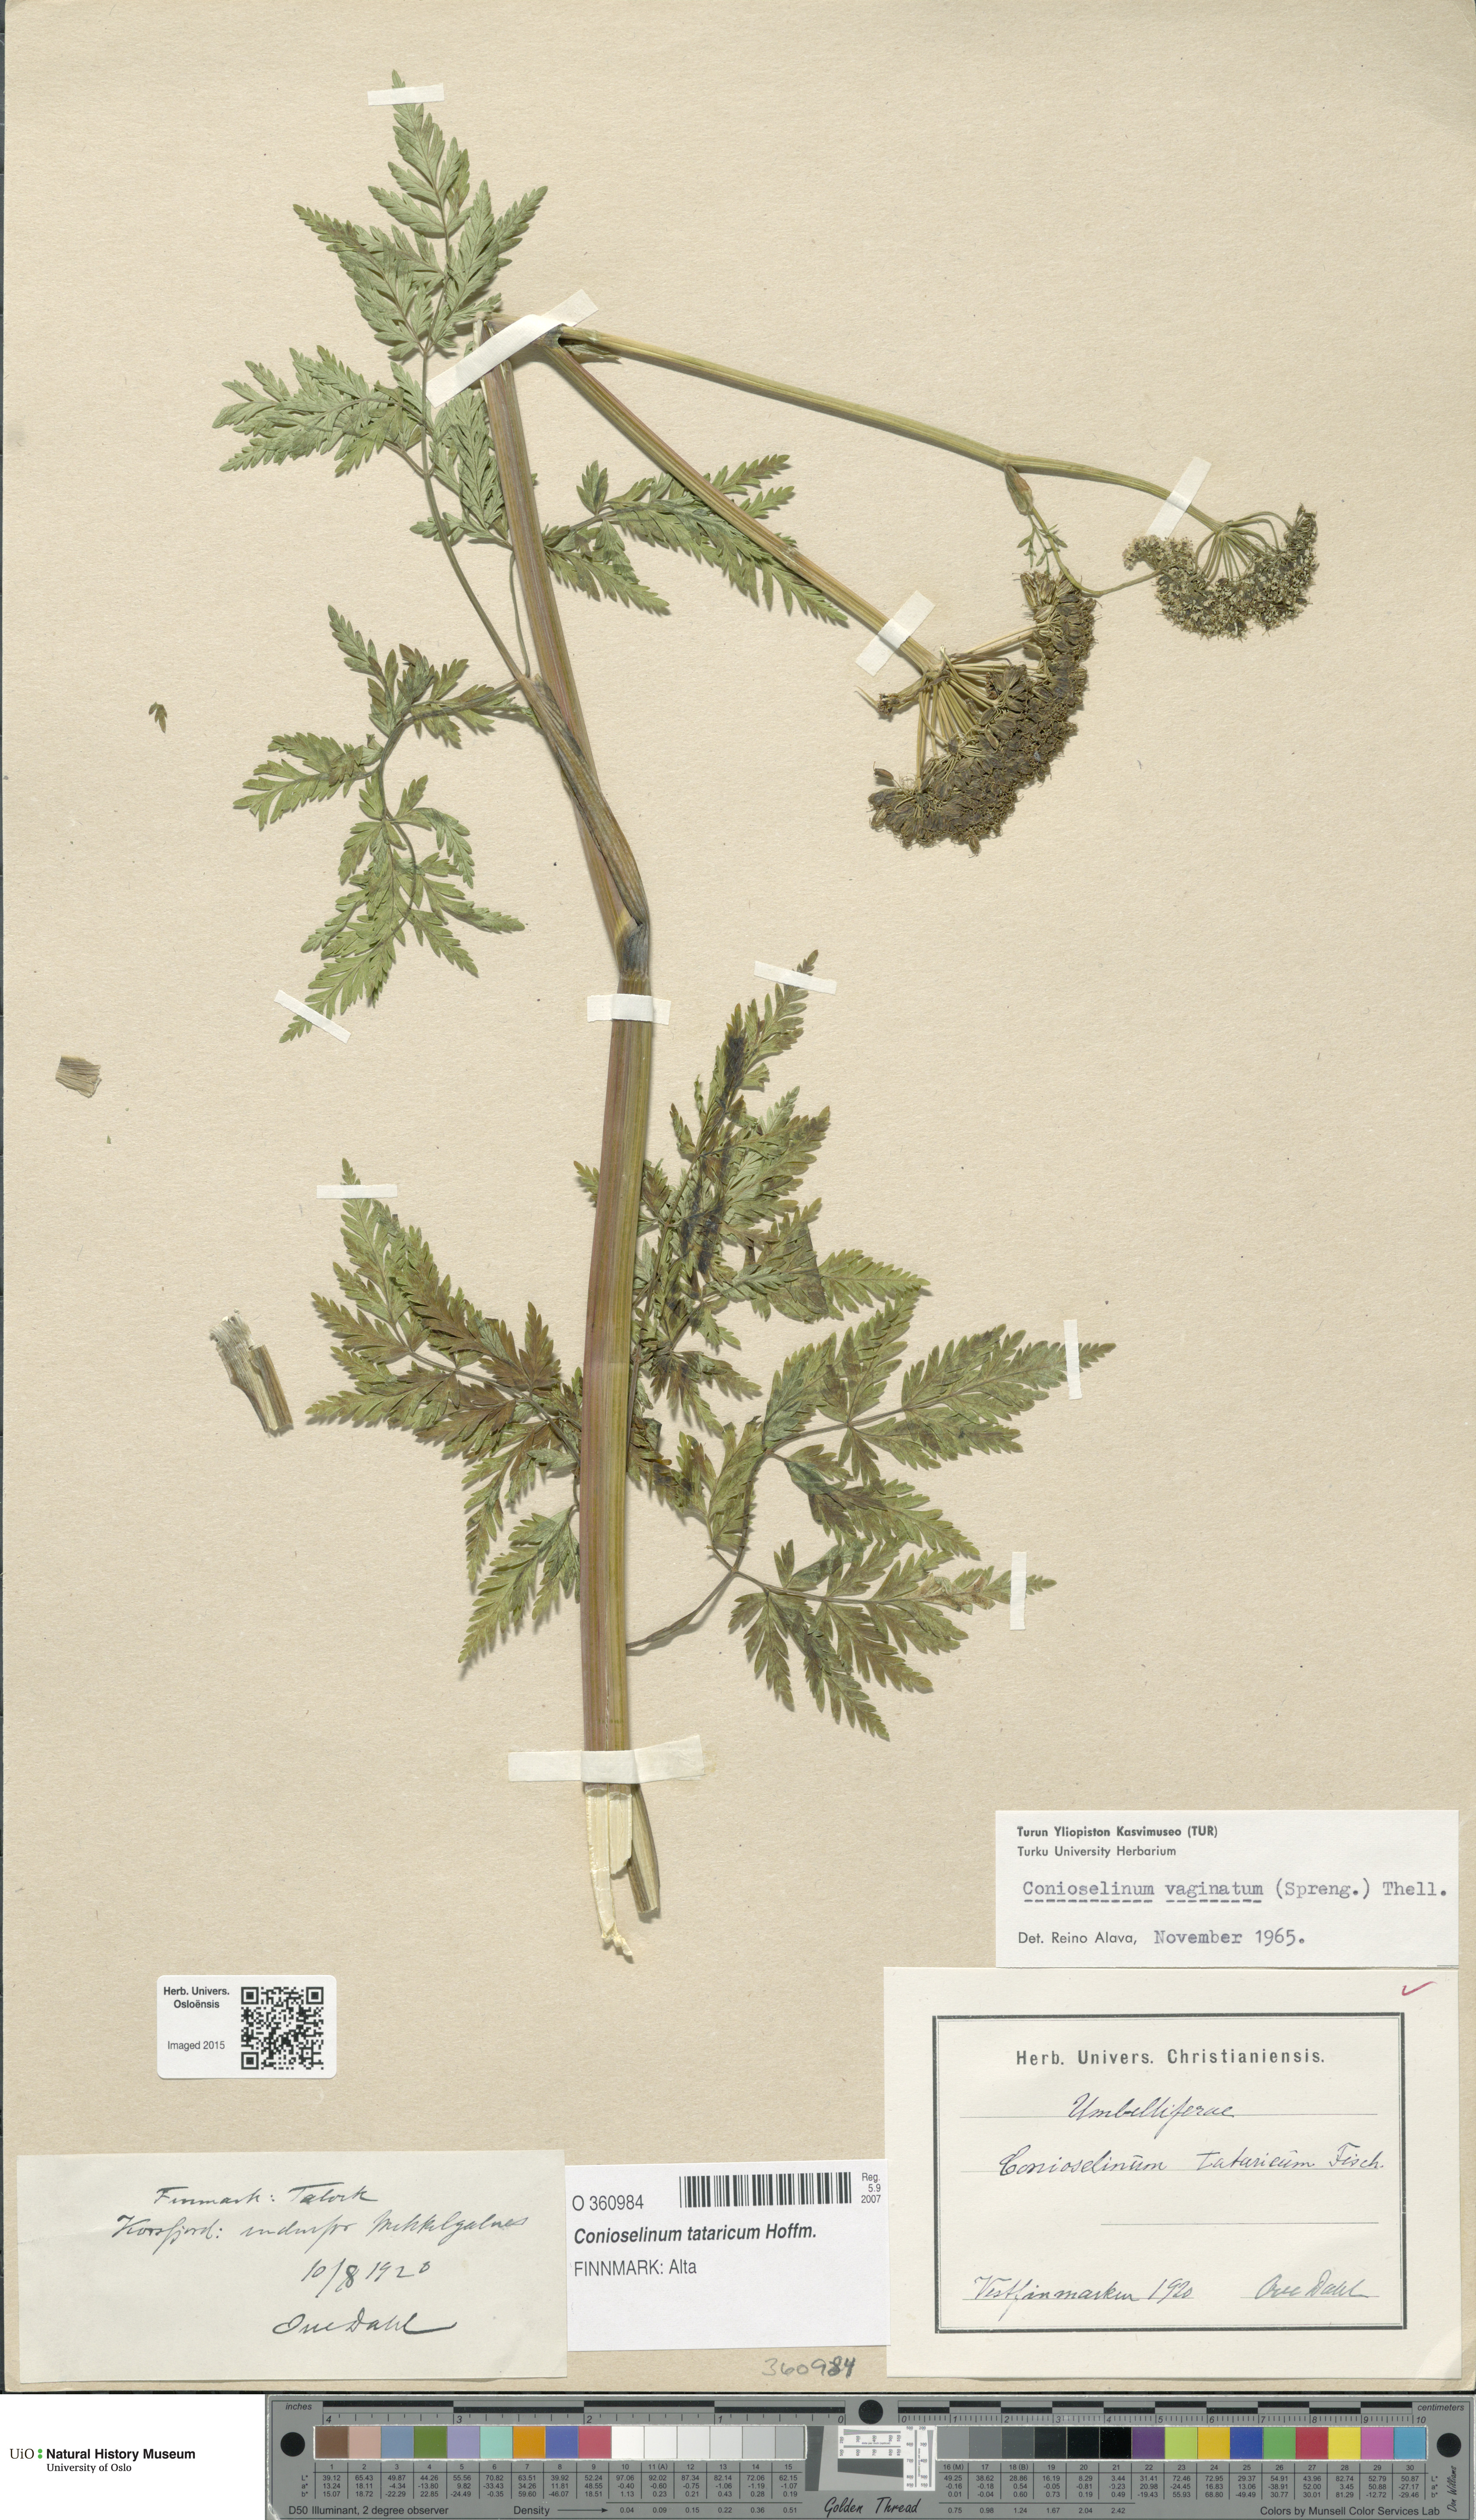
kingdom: Plantae
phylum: Tracheophyta
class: Magnoliopsida
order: Apiales
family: Apiaceae
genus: Seseli
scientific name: Seseli condensatum
